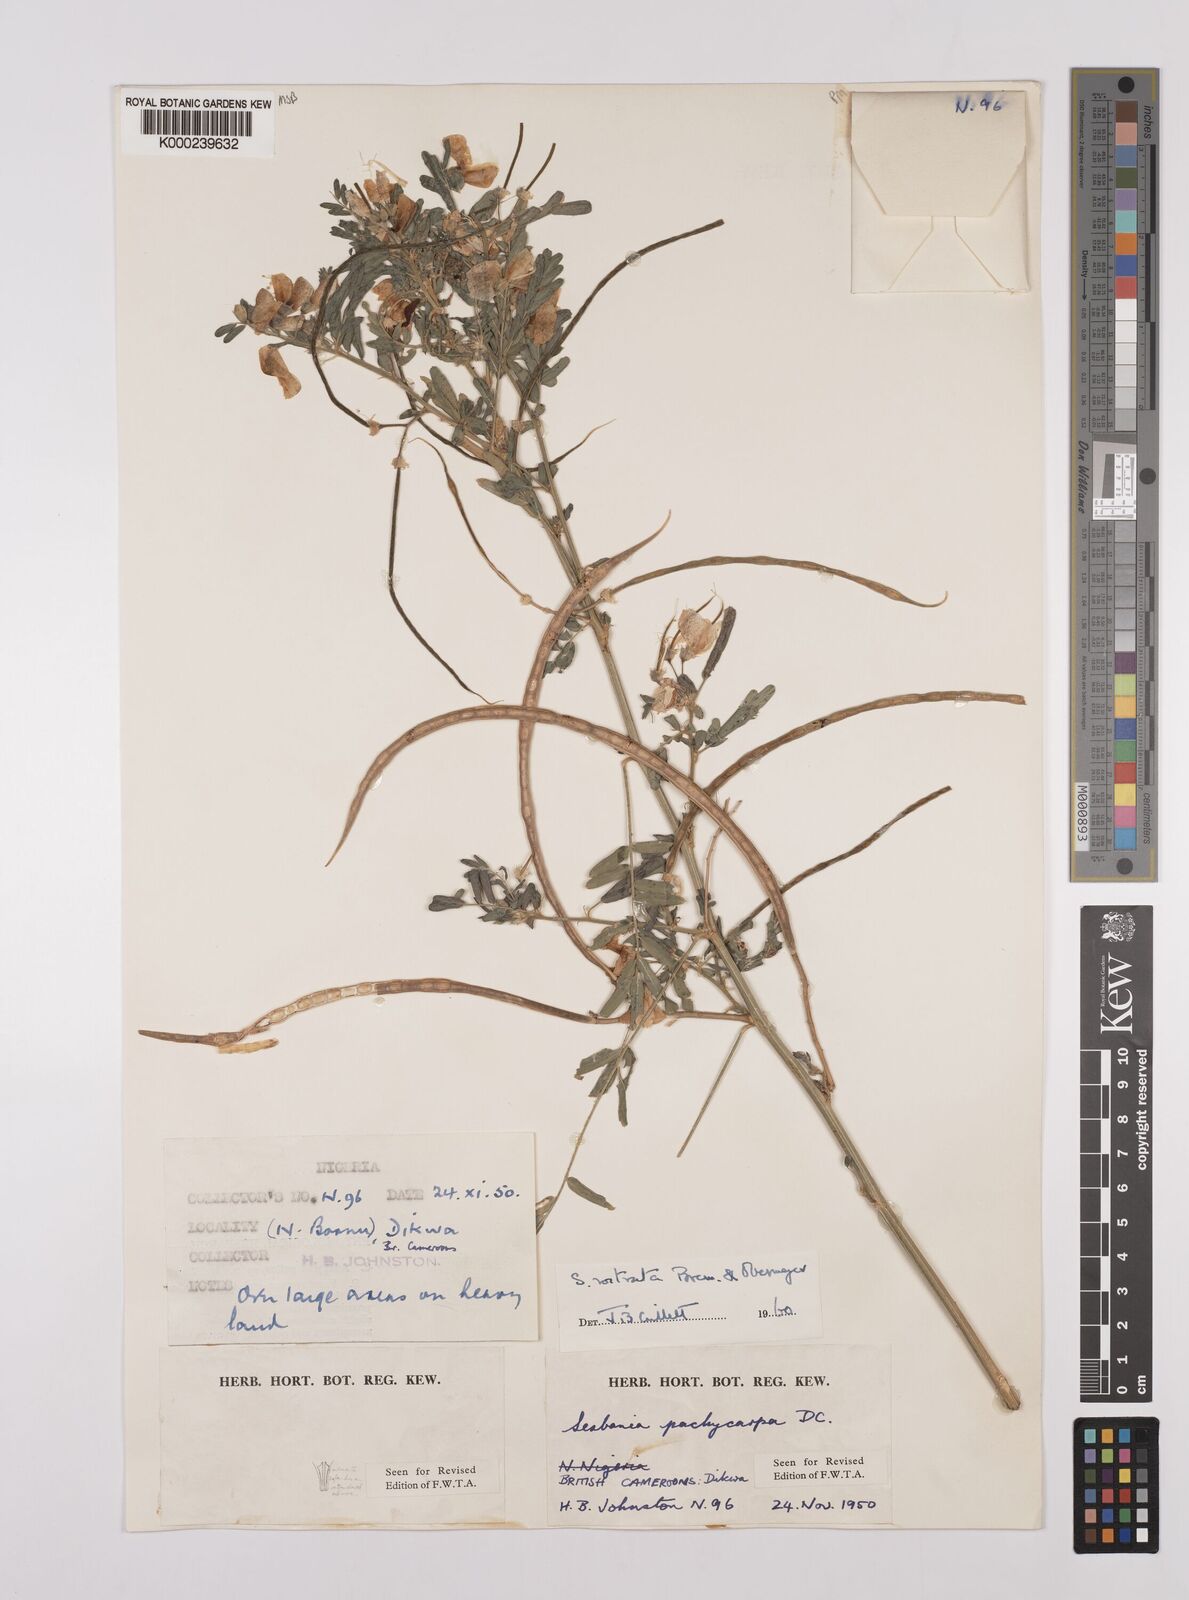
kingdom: Plantae
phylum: Tracheophyta
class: Magnoliopsida
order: Fabales
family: Fabaceae
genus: Sesbania
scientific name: Sesbania rostrata
